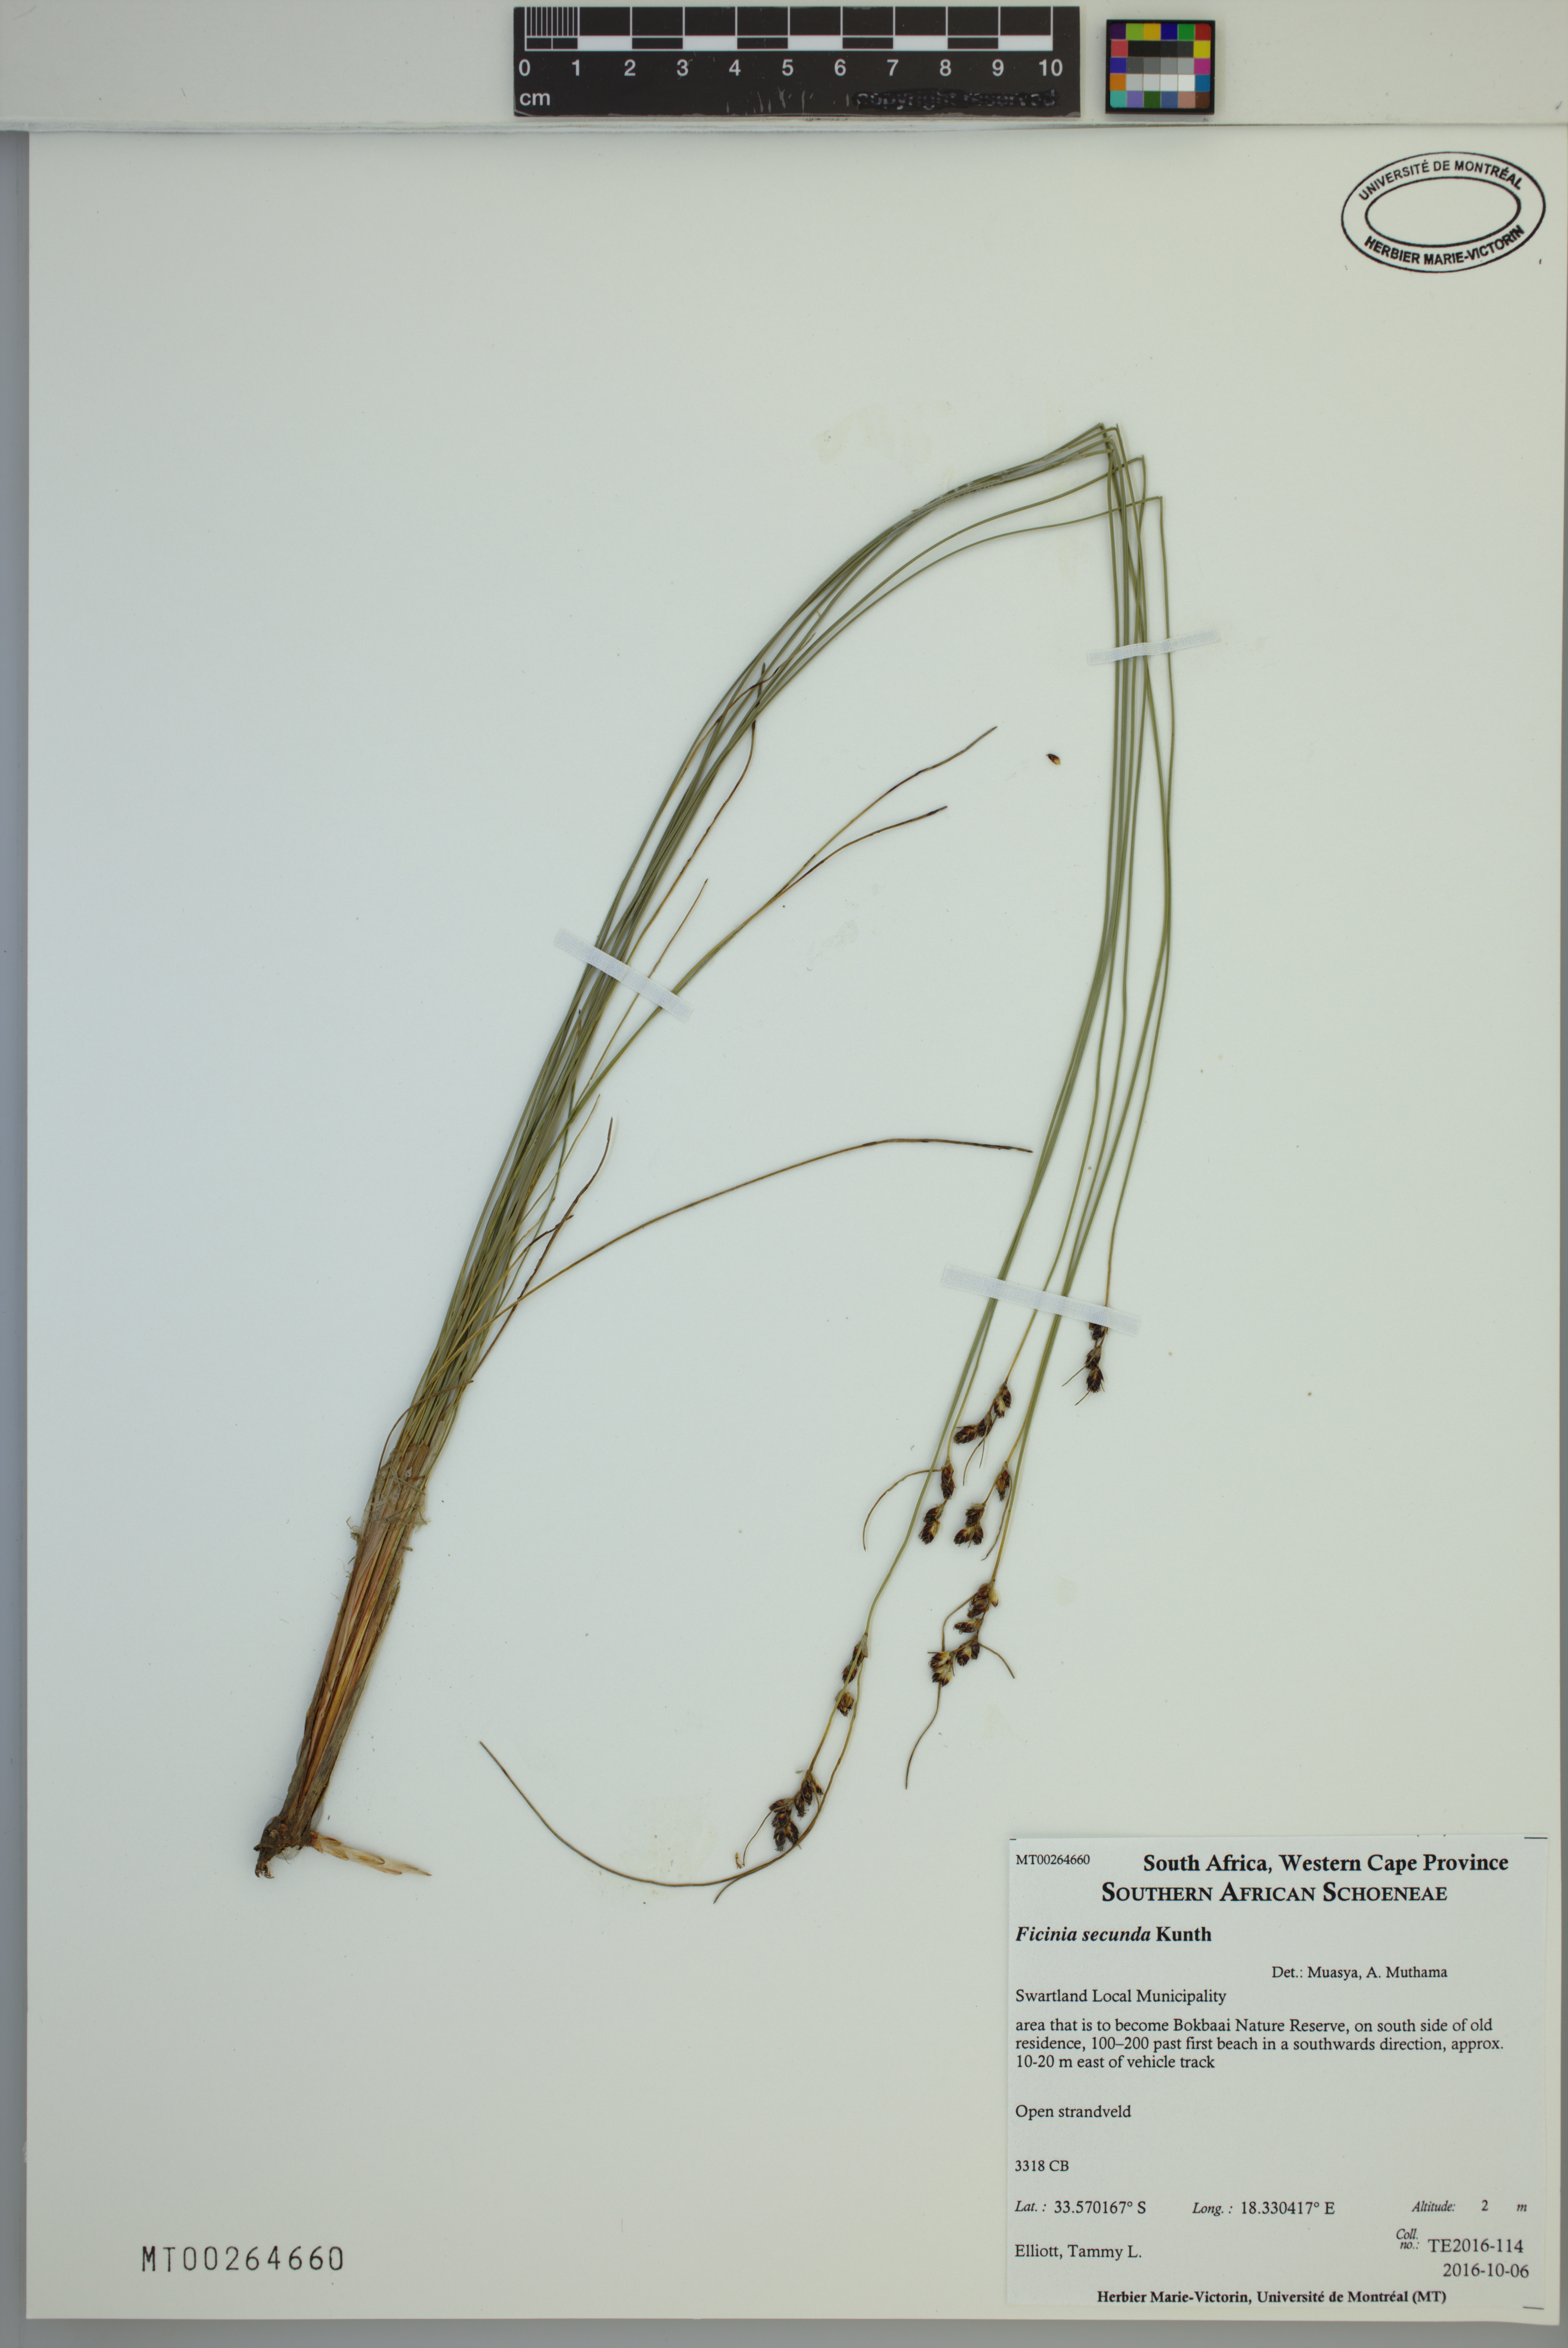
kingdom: Plantae
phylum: Tracheophyta
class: Liliopsida
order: Poales
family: Cyperaceae
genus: Ficinia
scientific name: Ficinia secunda
